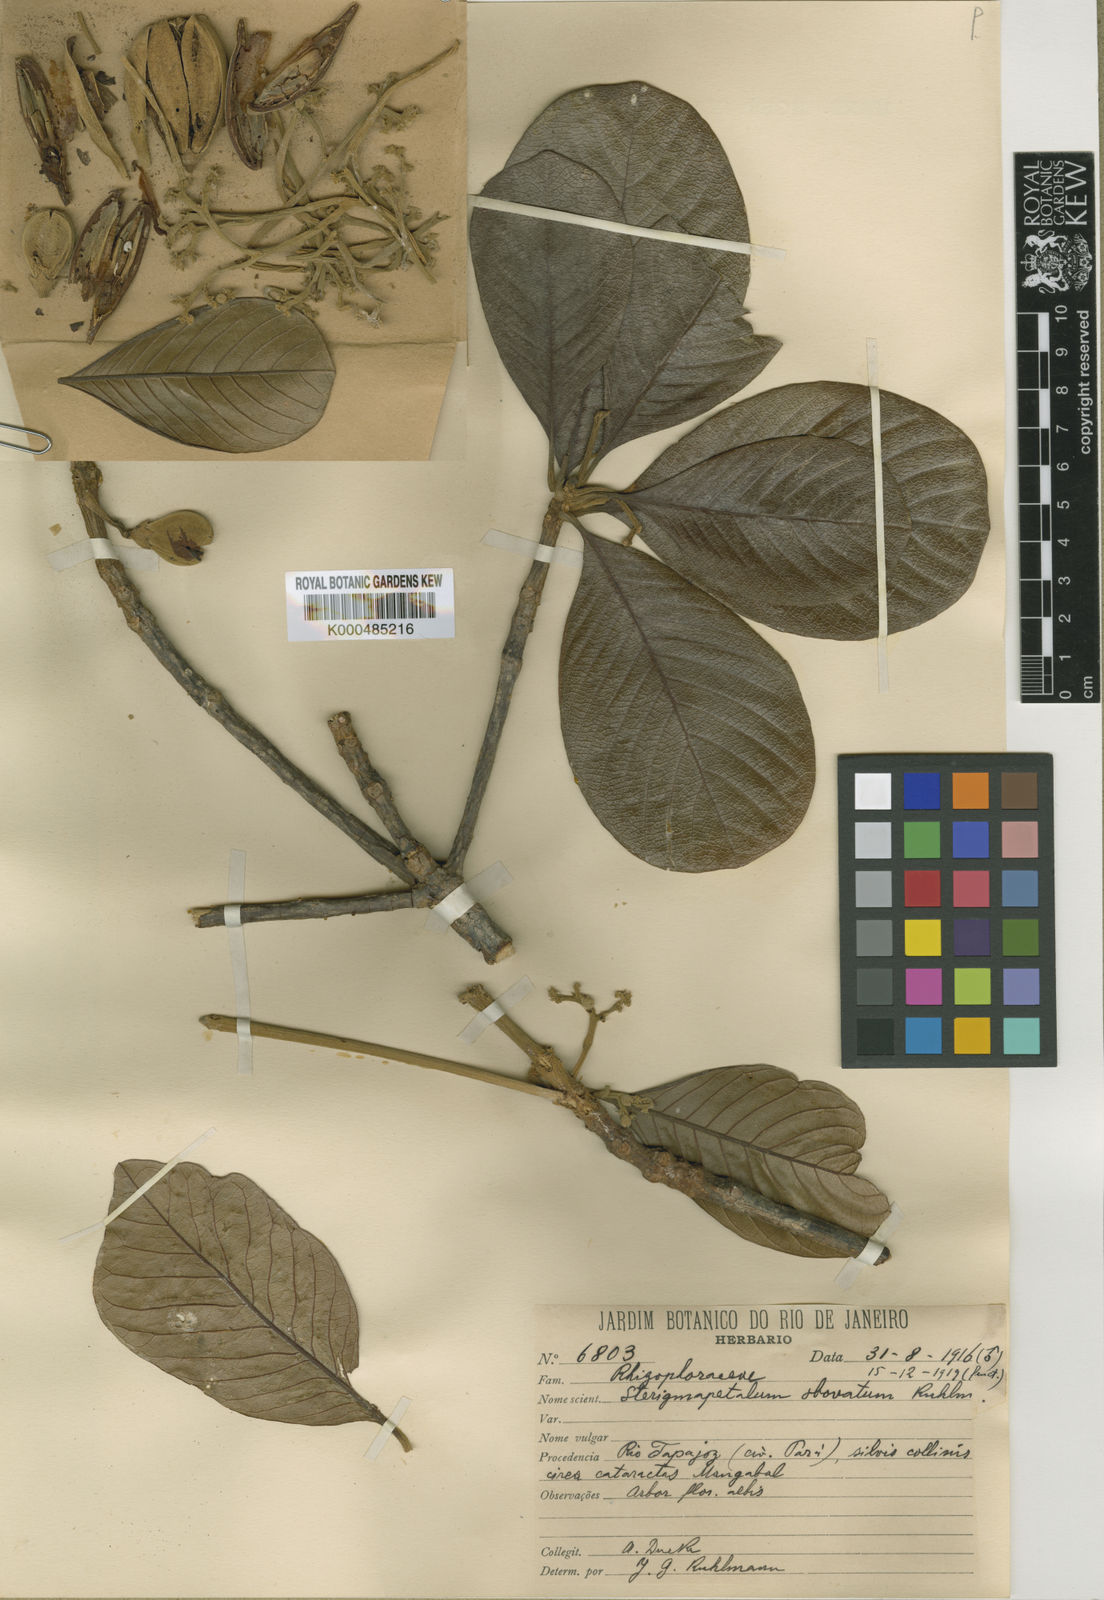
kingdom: Plantae
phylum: Tracheophyta
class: Magnoliopsida
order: Malpighiales
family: Rhizophoraceae
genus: Sterigmapetalum
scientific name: Sterigmapetalum obovatum
